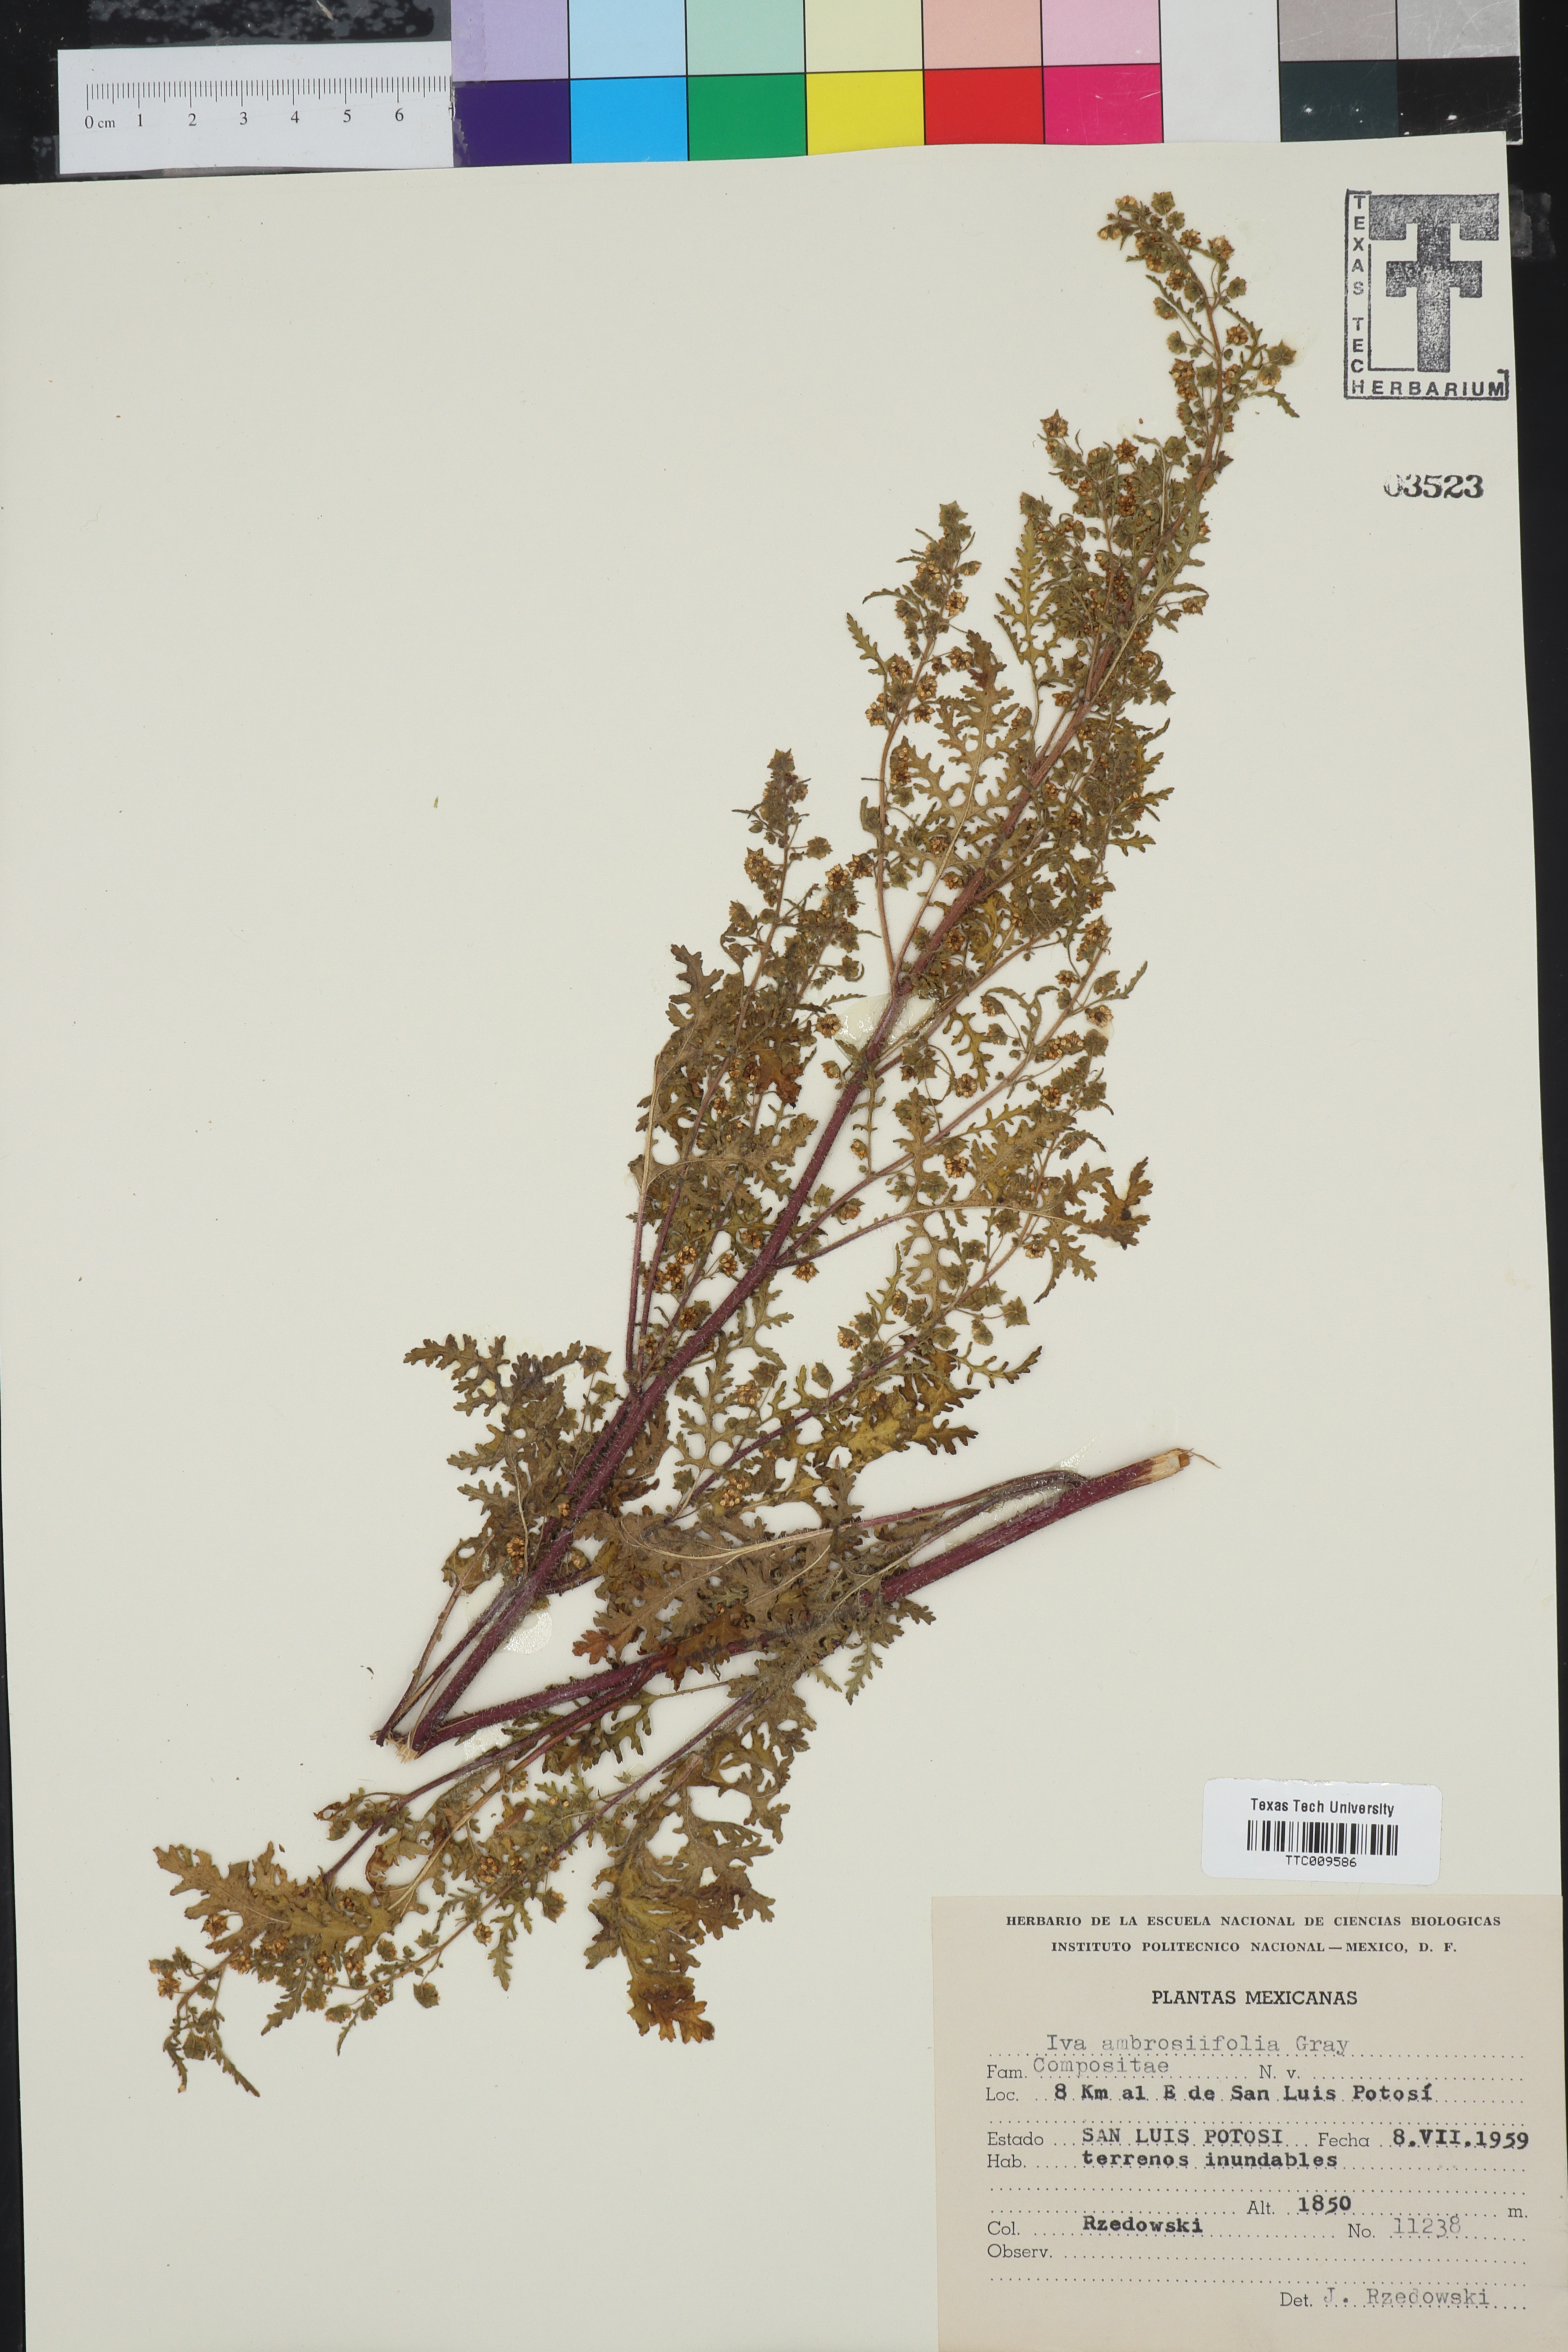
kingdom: Plantae
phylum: Tracheophyta
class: Magnoliopsida
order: Asterales
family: Asteraceae
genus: Hedosyne
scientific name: Hedosyne ambrosiifolia
